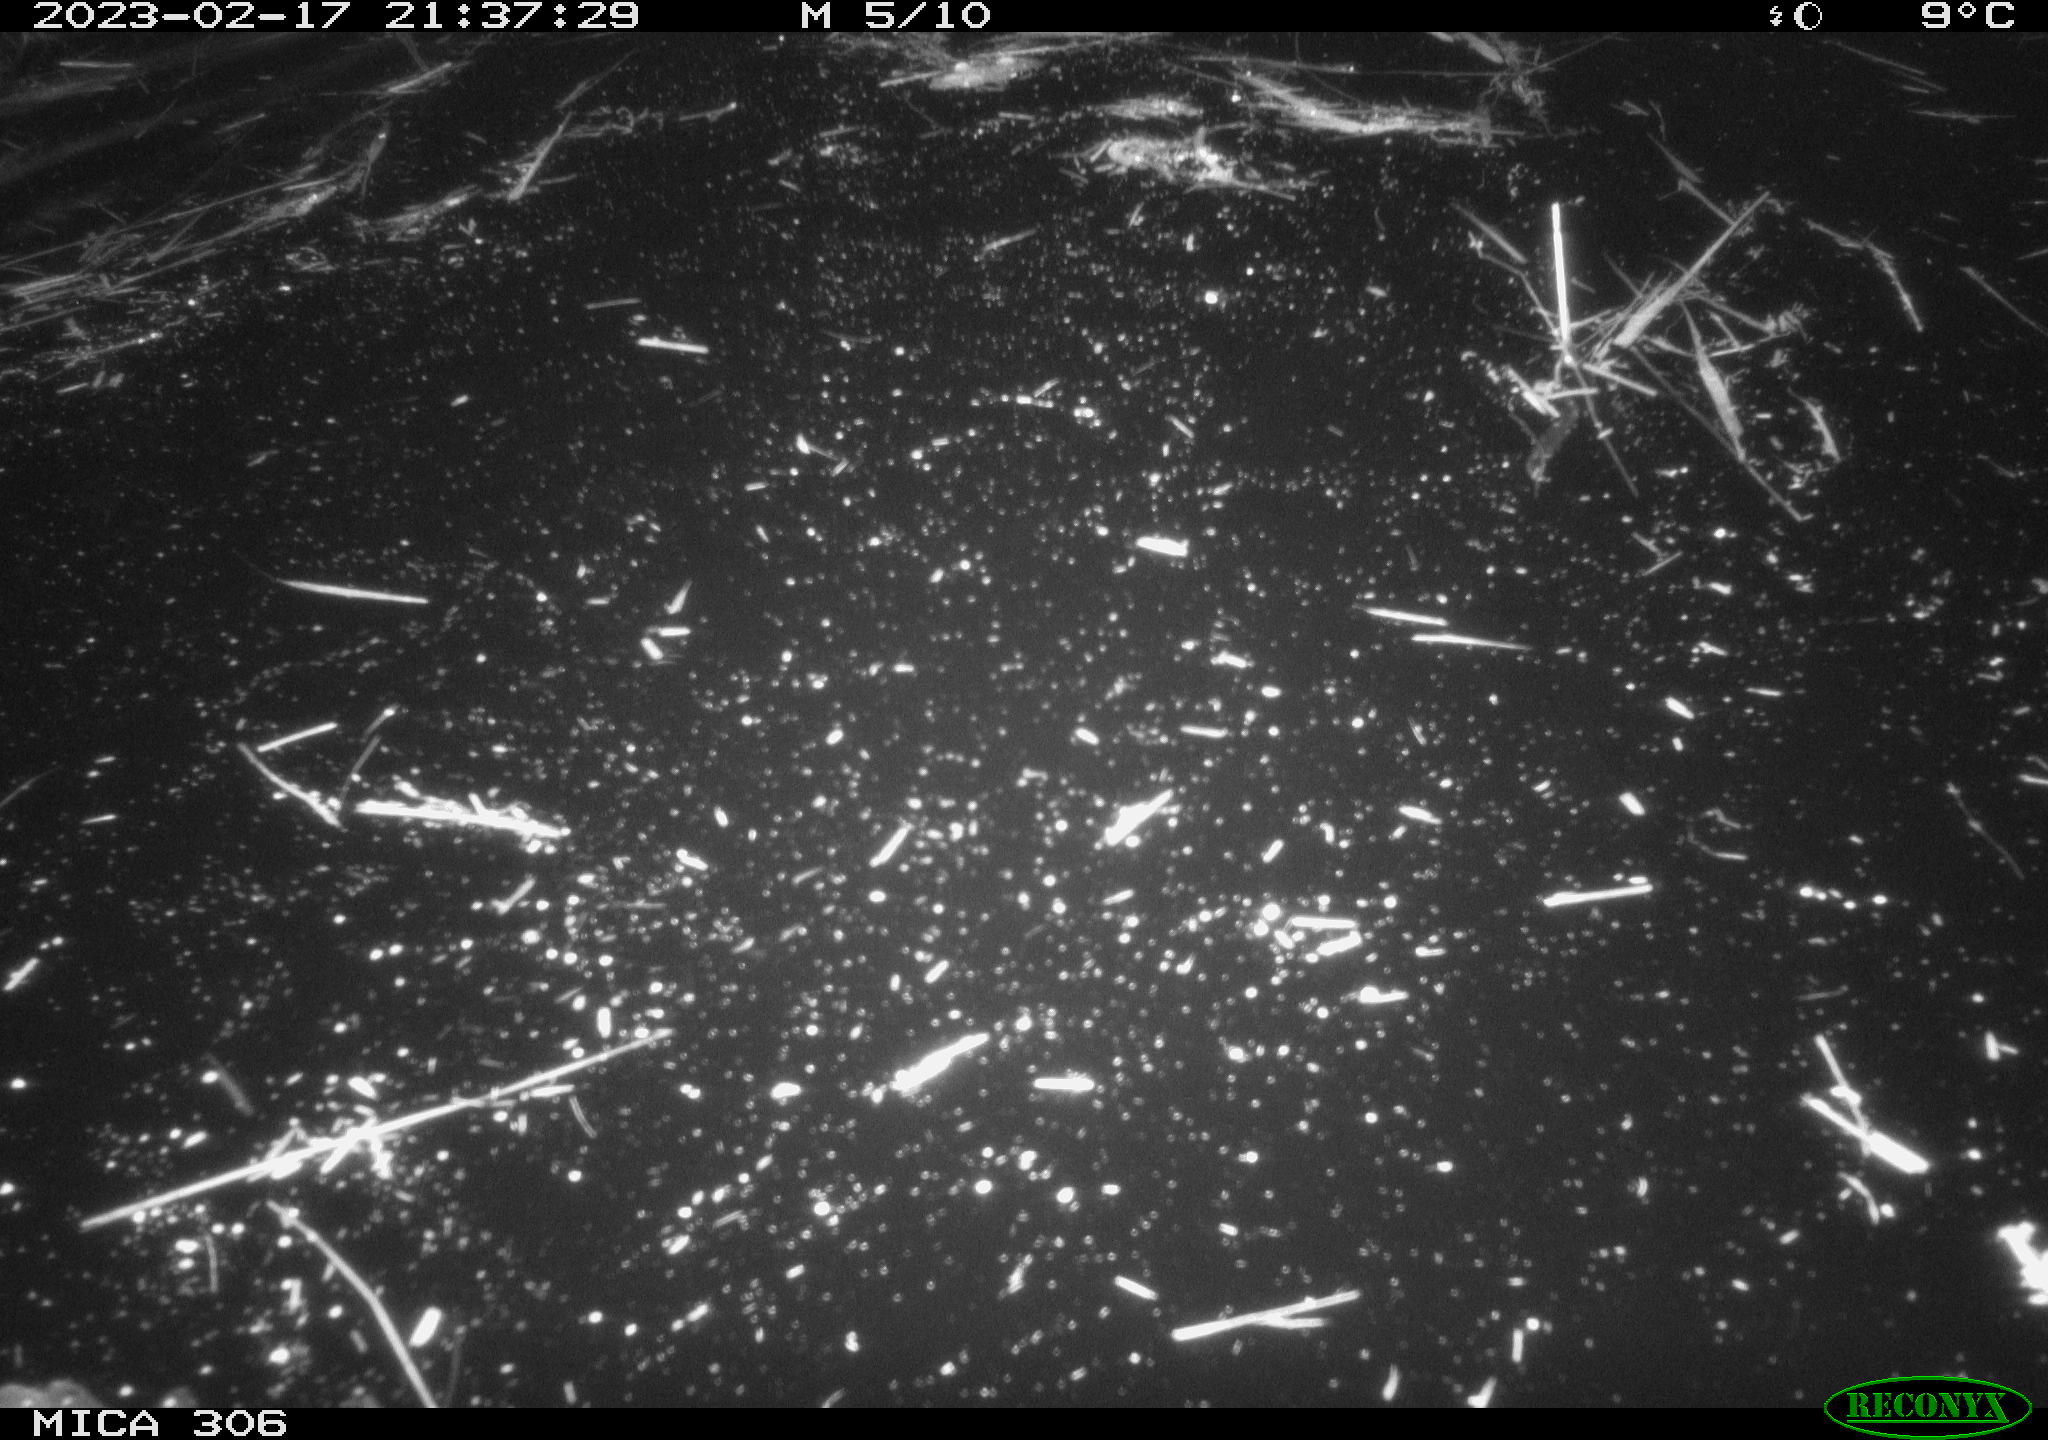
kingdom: Animalia
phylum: Chordata
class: Mammalia
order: Rodentia
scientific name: Rodentia
